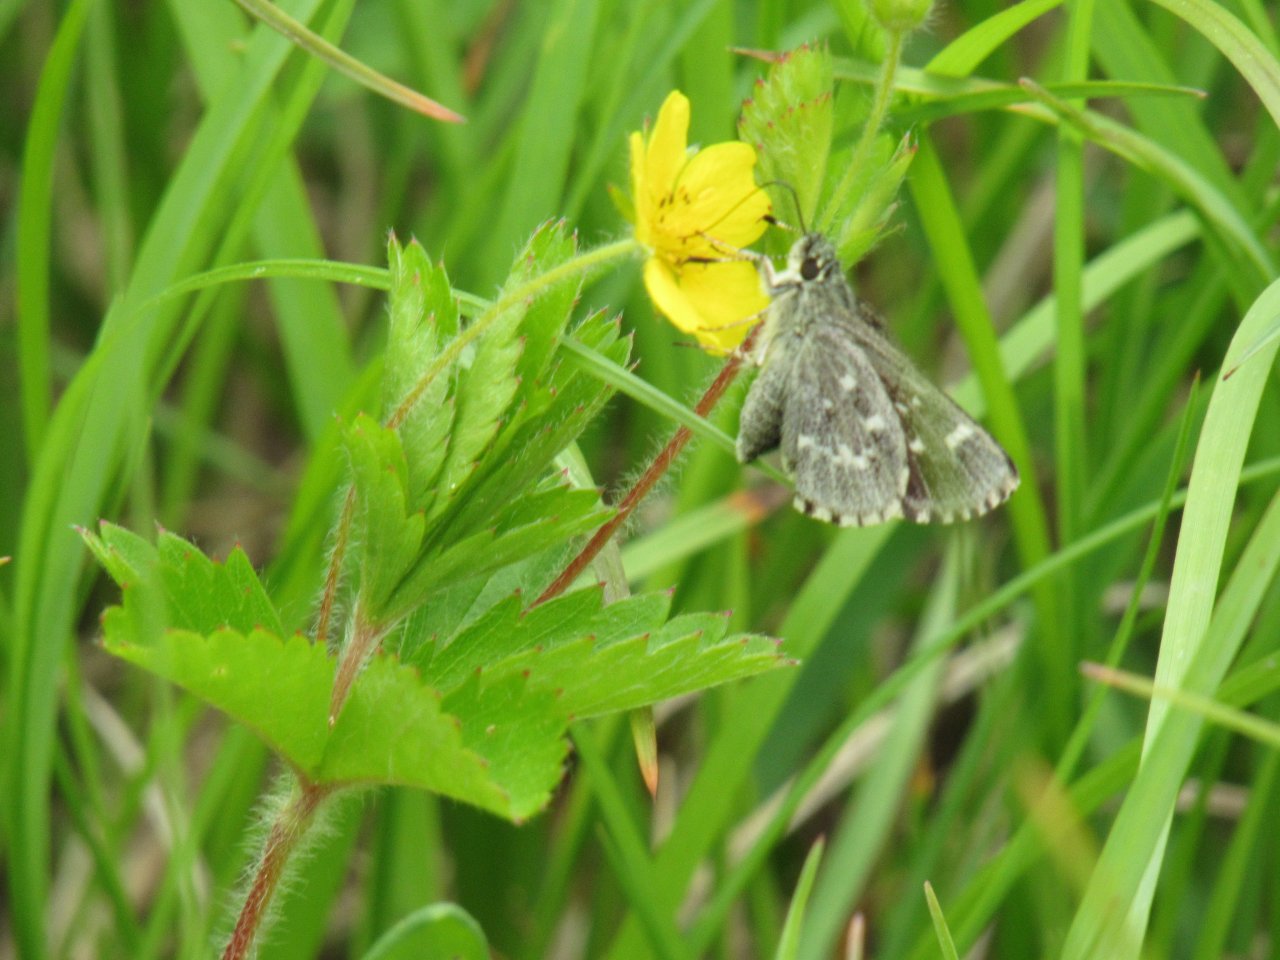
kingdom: Animalia
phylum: Arthropoda
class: Insecta
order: Lepidoptera
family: Hesperiidae
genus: Mastor
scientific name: Mastor hegon
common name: Pepper and Salt Skipper
